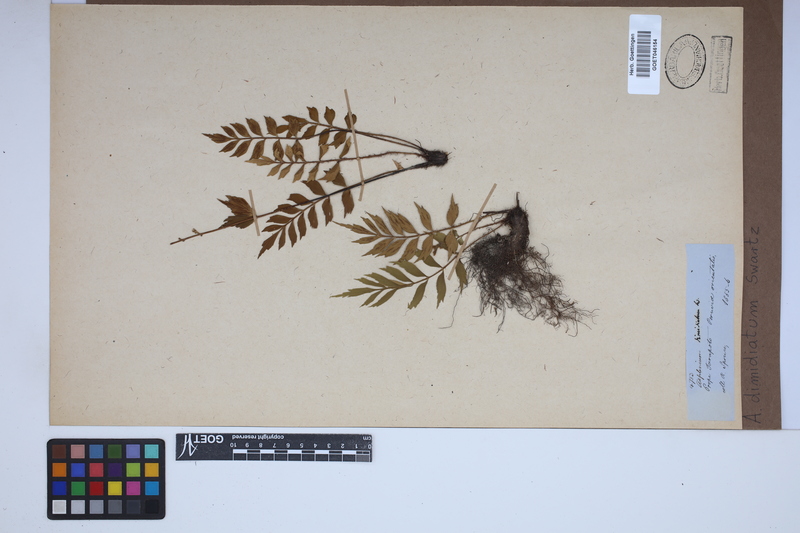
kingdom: Plantae
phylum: Tracheophyta
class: Polypodiopsida
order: Polypodiales
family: Aspleniaceae
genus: Asplenium
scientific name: Asplenium dimidiatum
